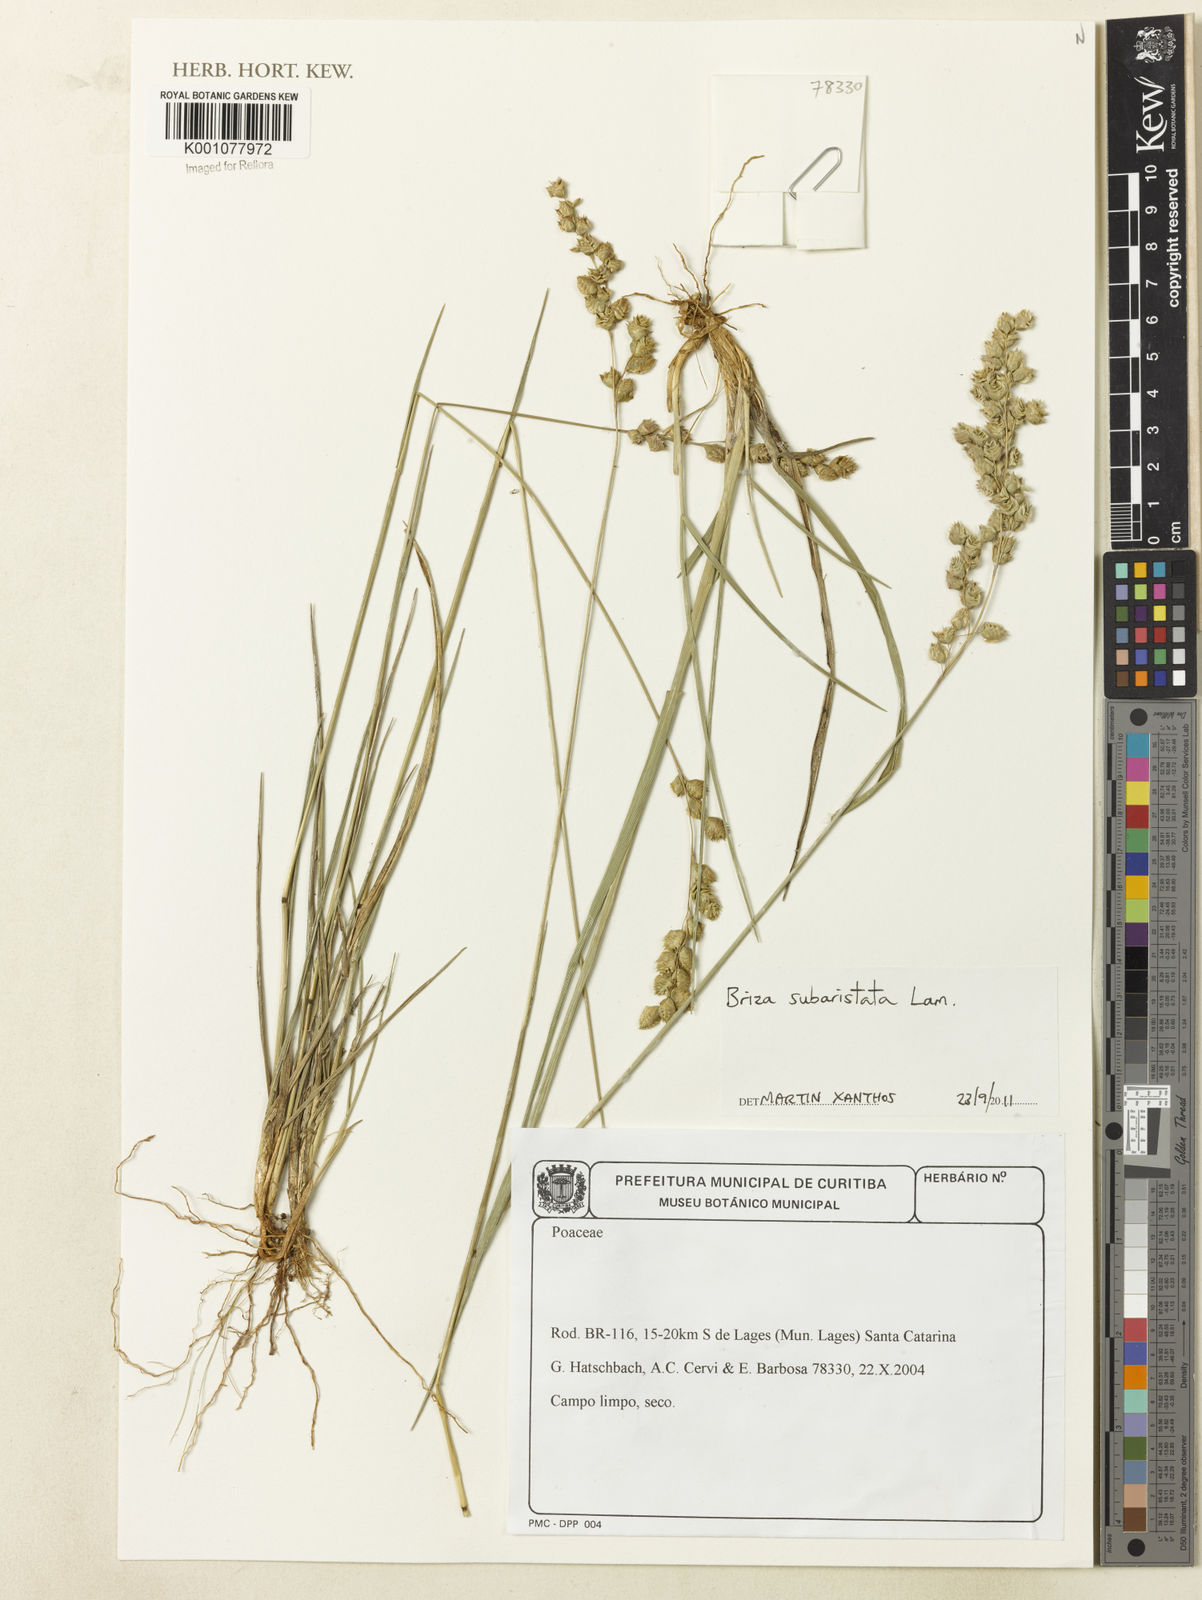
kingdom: Plantae
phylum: Tracheophyta
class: Liliopsida
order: Poales
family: Poaceae
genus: Briza
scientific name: Briza
